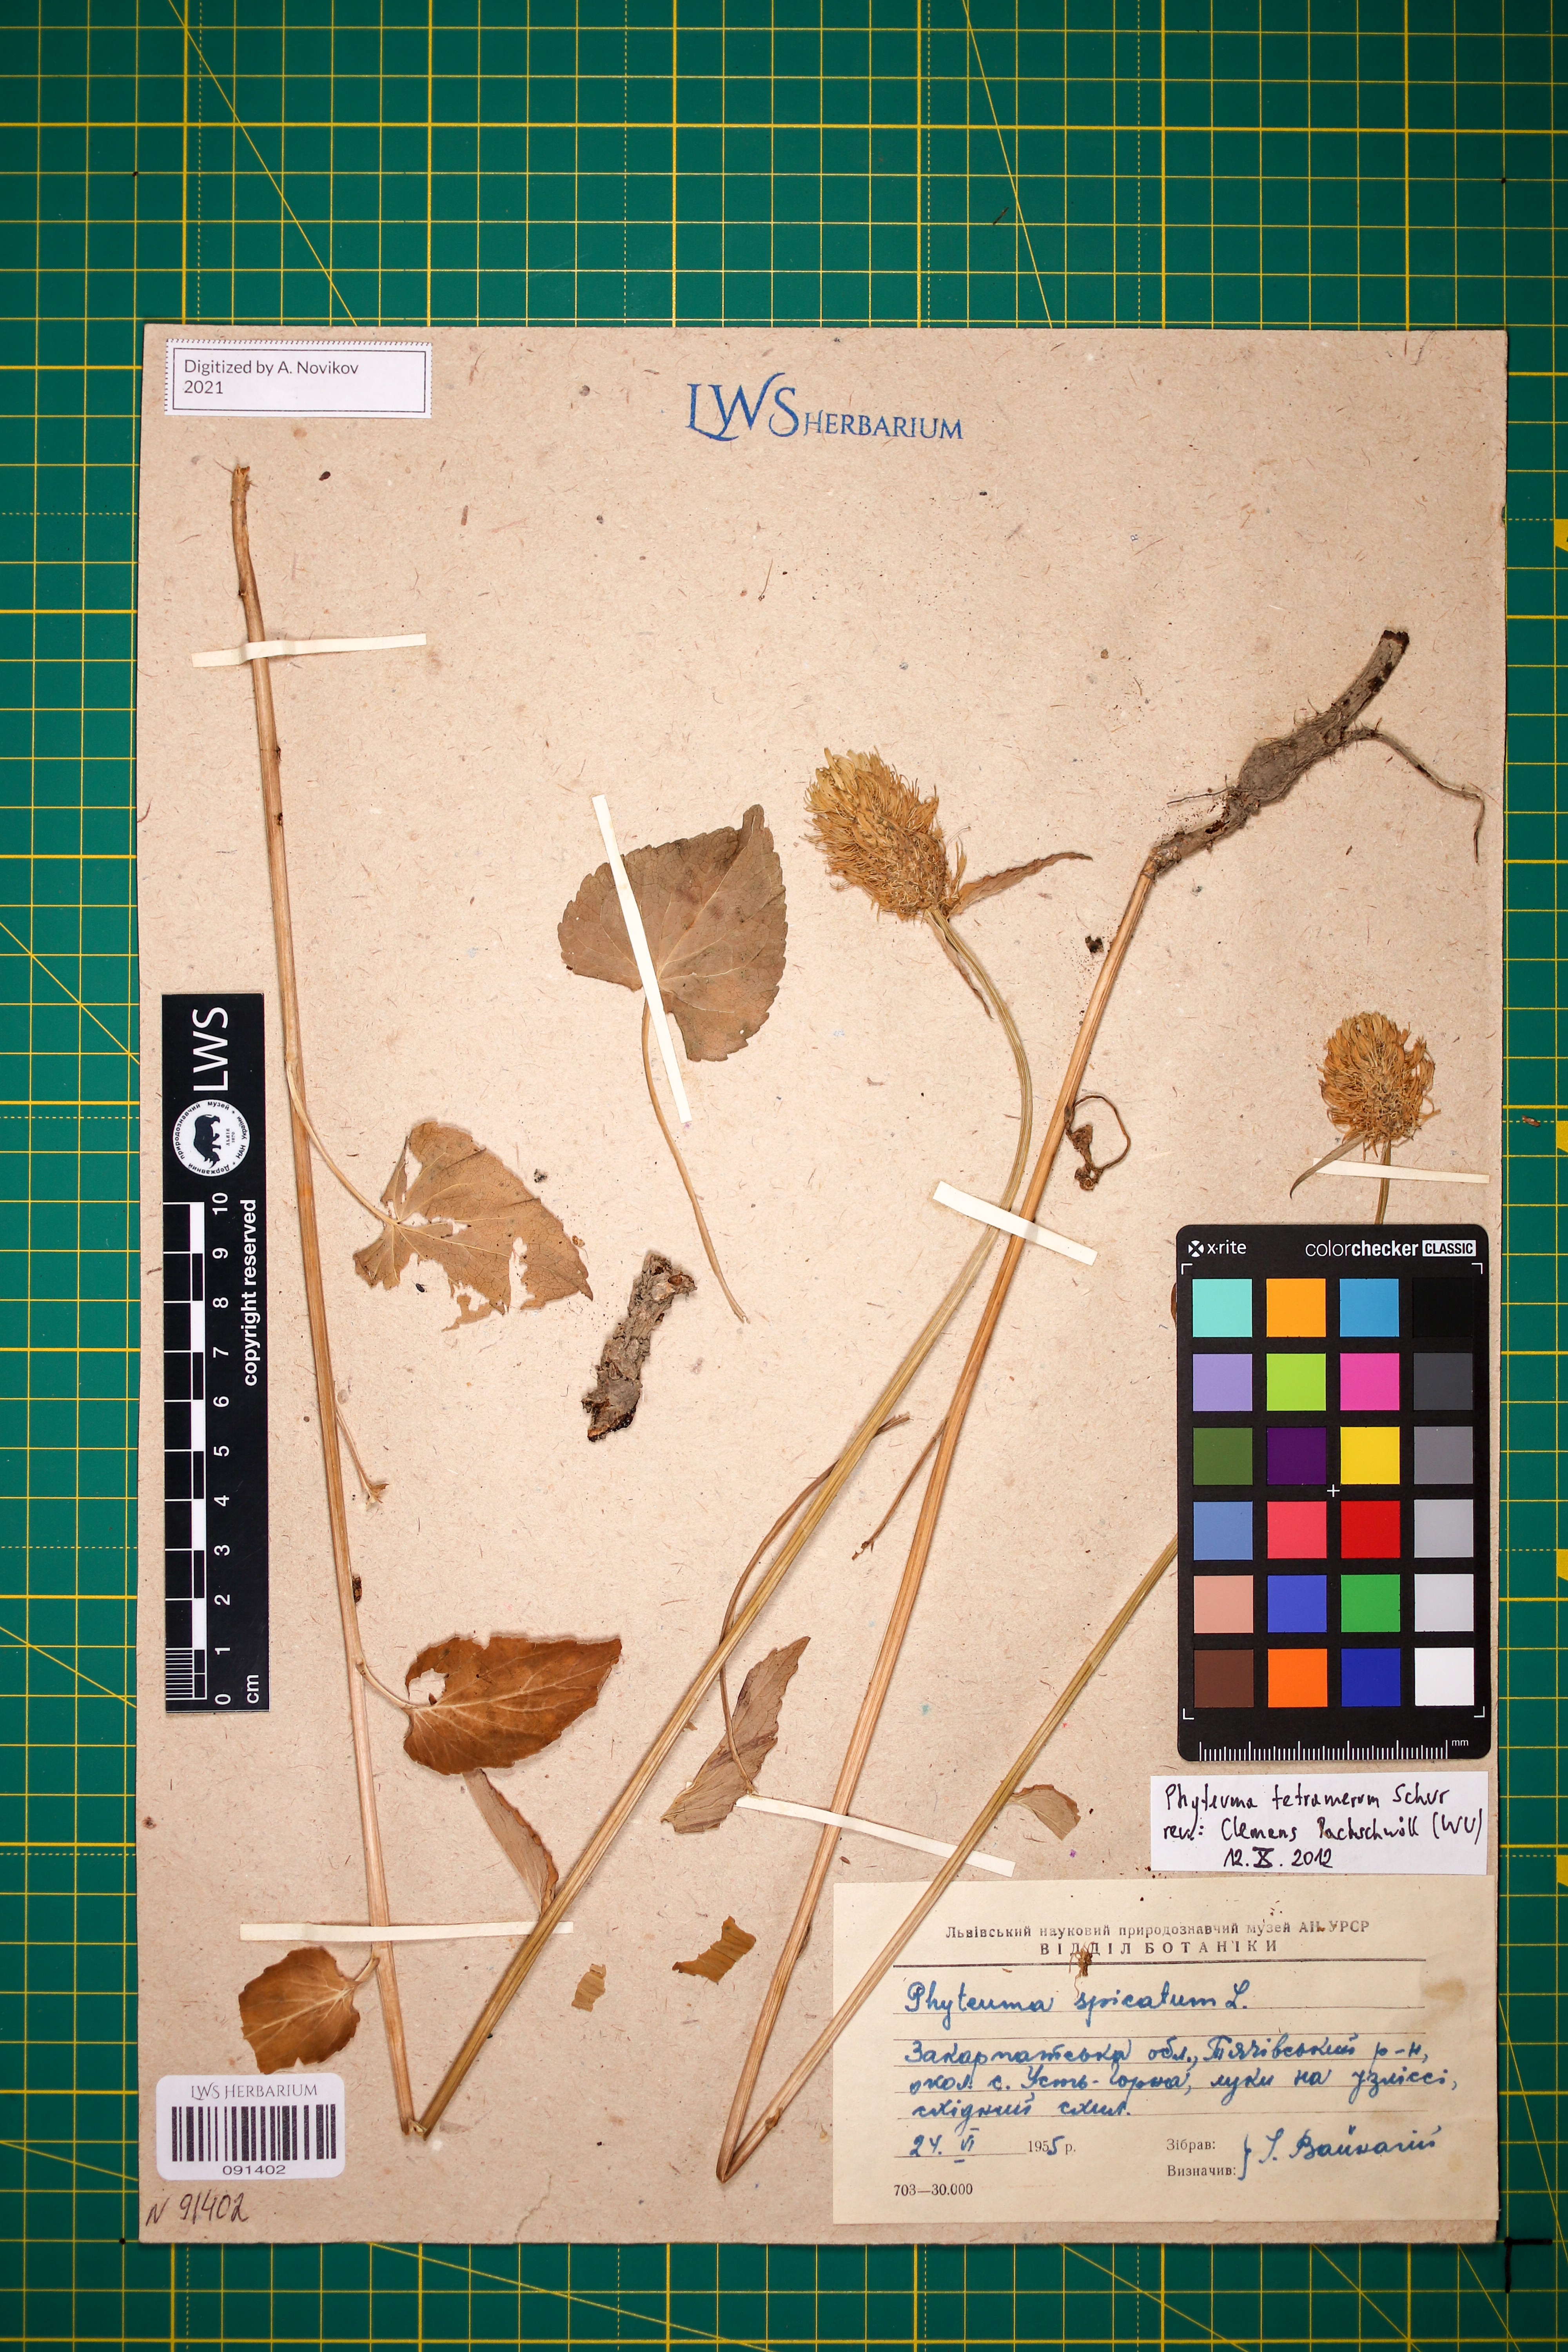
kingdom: Plantae
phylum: Tracheophyta
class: Magnoliopsida
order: Asterales
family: Campanulaceae
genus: Phyteuma
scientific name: Phyteuma tetramerum
